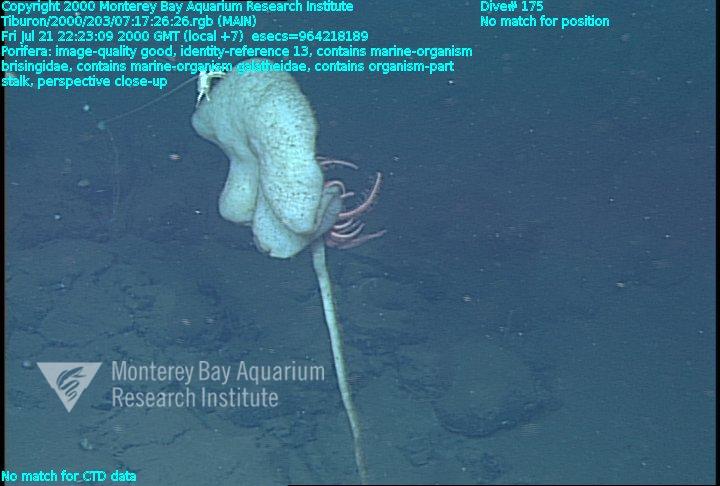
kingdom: Animalia
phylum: Porifera
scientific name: Porifera
